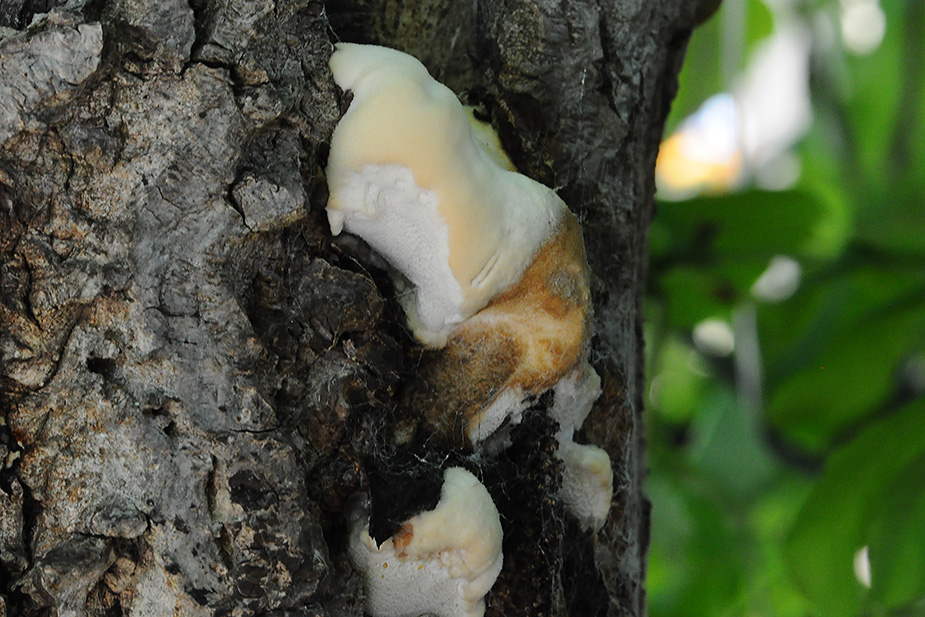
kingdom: Fungi
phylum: Basidiomycota
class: Agaricomycetes
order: Polyporales
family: Meruliaceae
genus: Pappia
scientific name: Pappia fissilis
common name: sej fedtporesvamp
